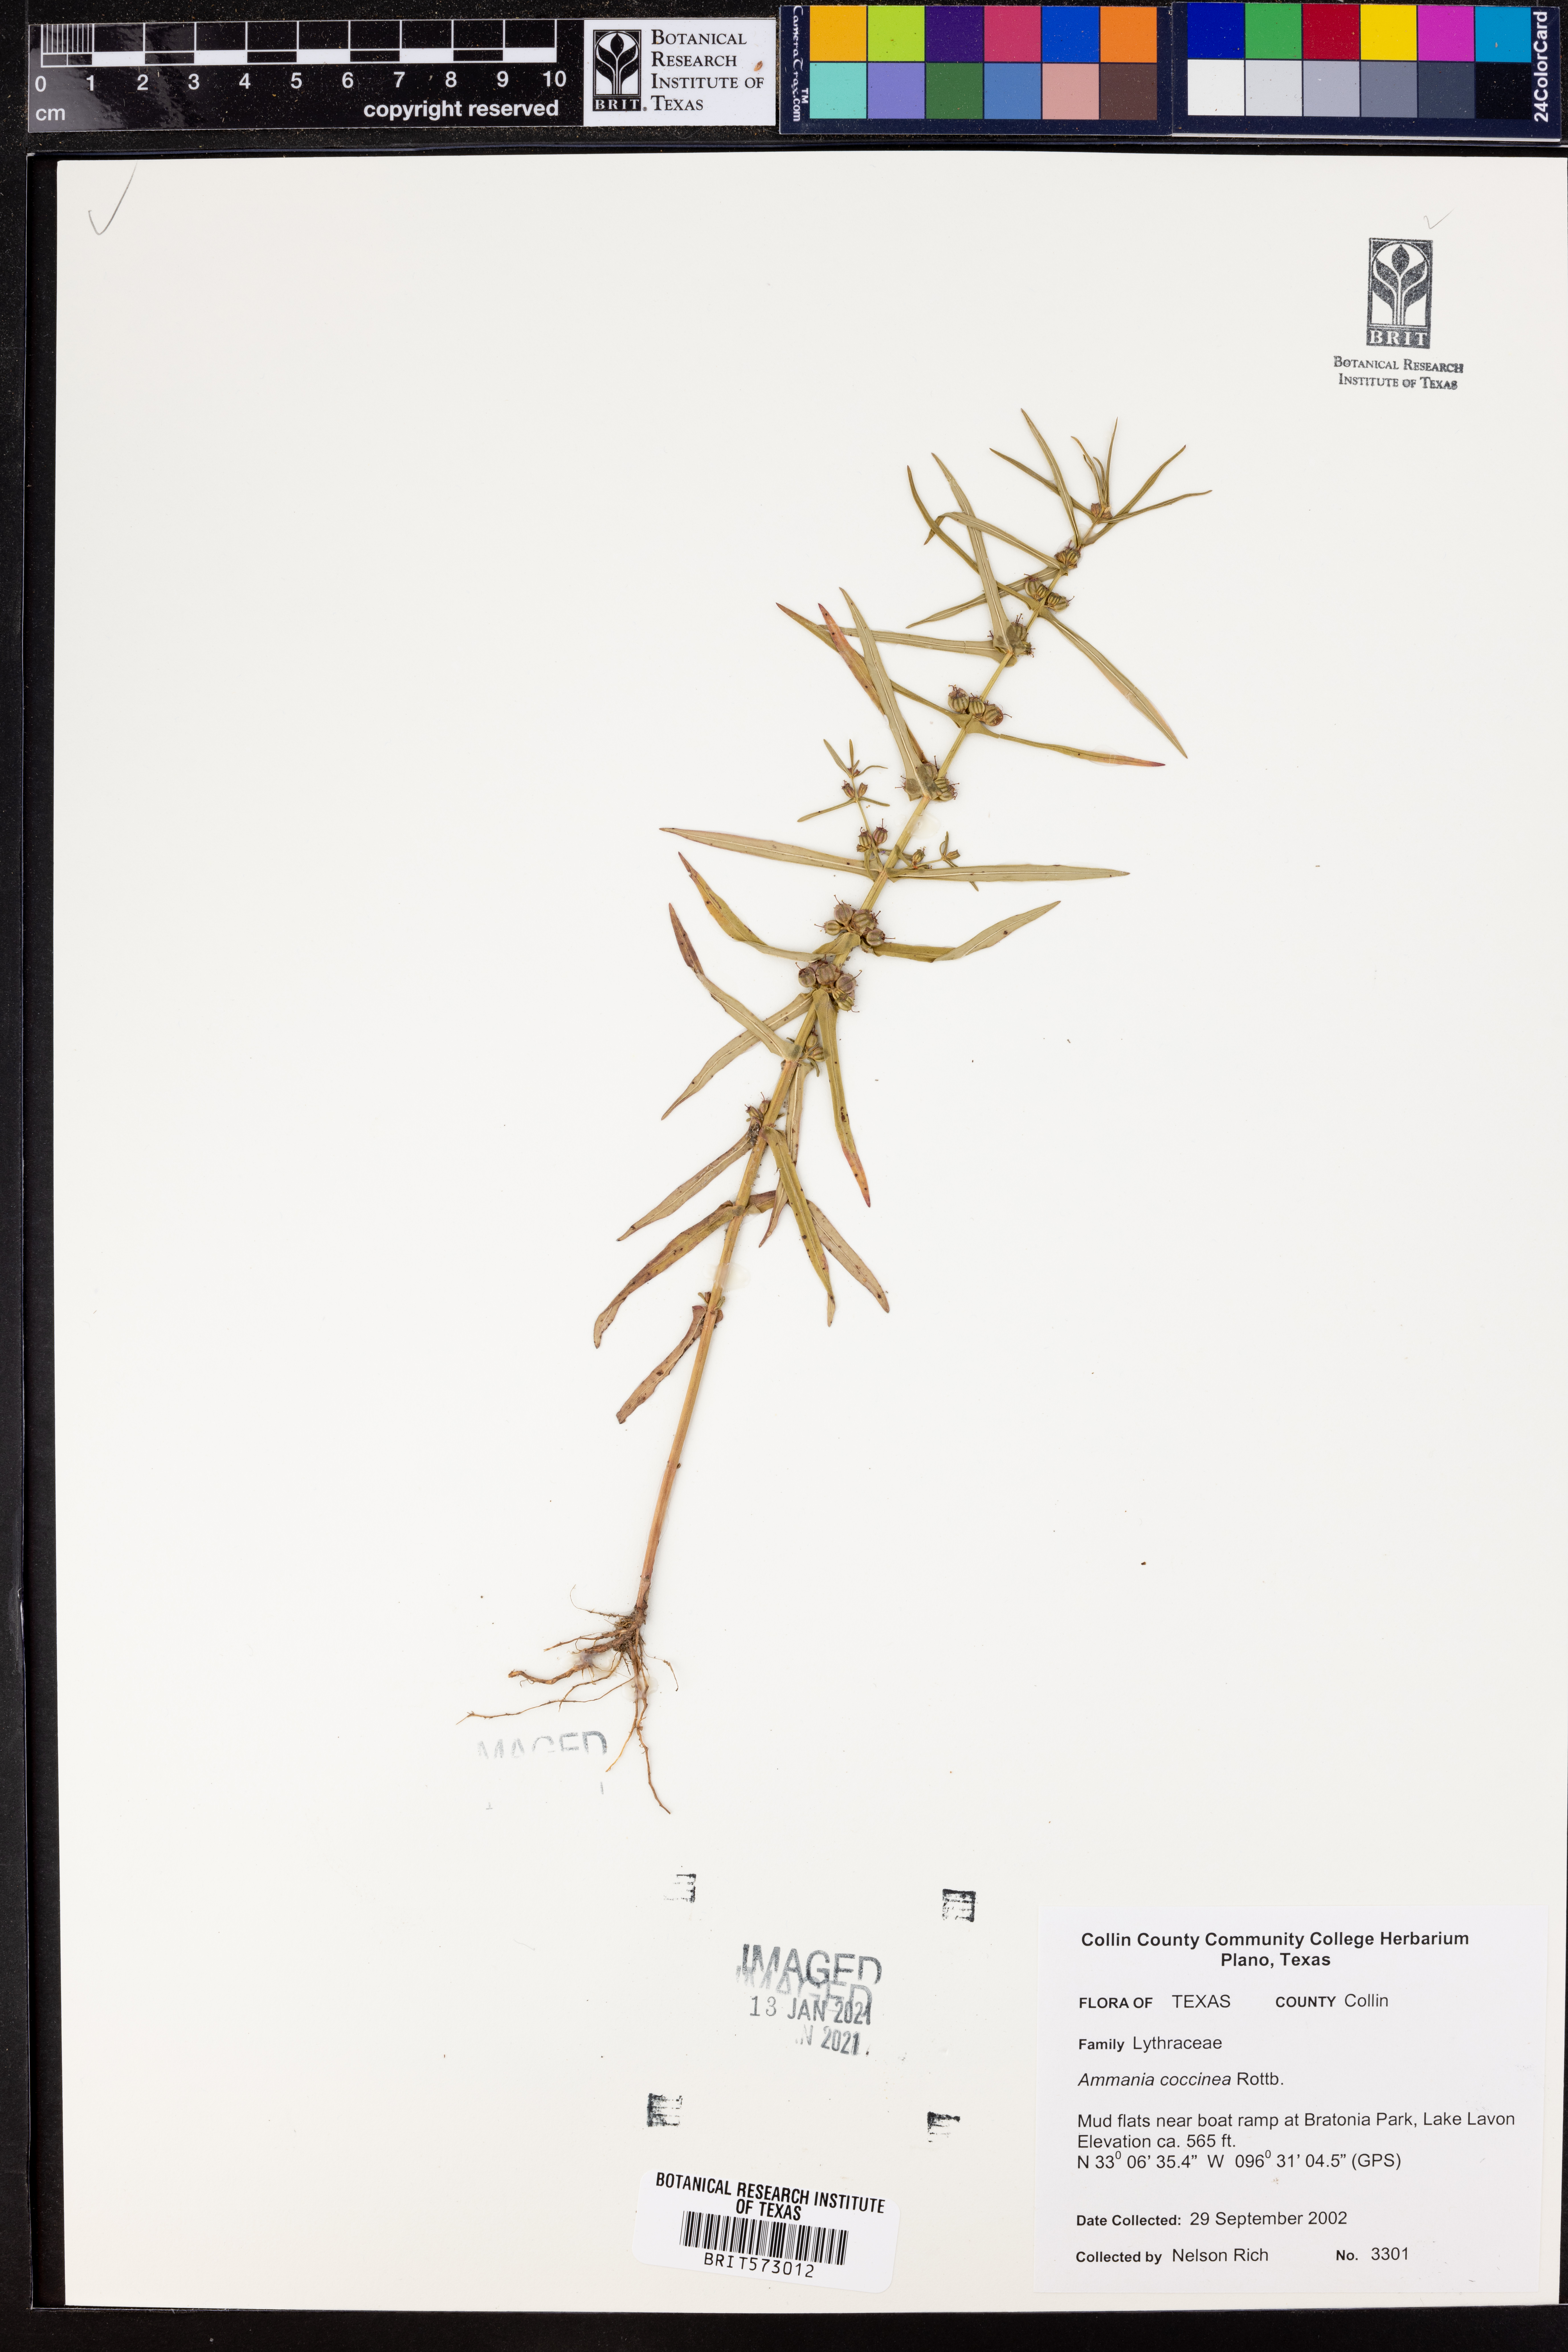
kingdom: Plantae
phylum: Tracheophyta
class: Magnoliopsida
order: Myrtales
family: Lythraceae
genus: Ammannia
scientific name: Ammannia coccinea
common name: Valley redstem
